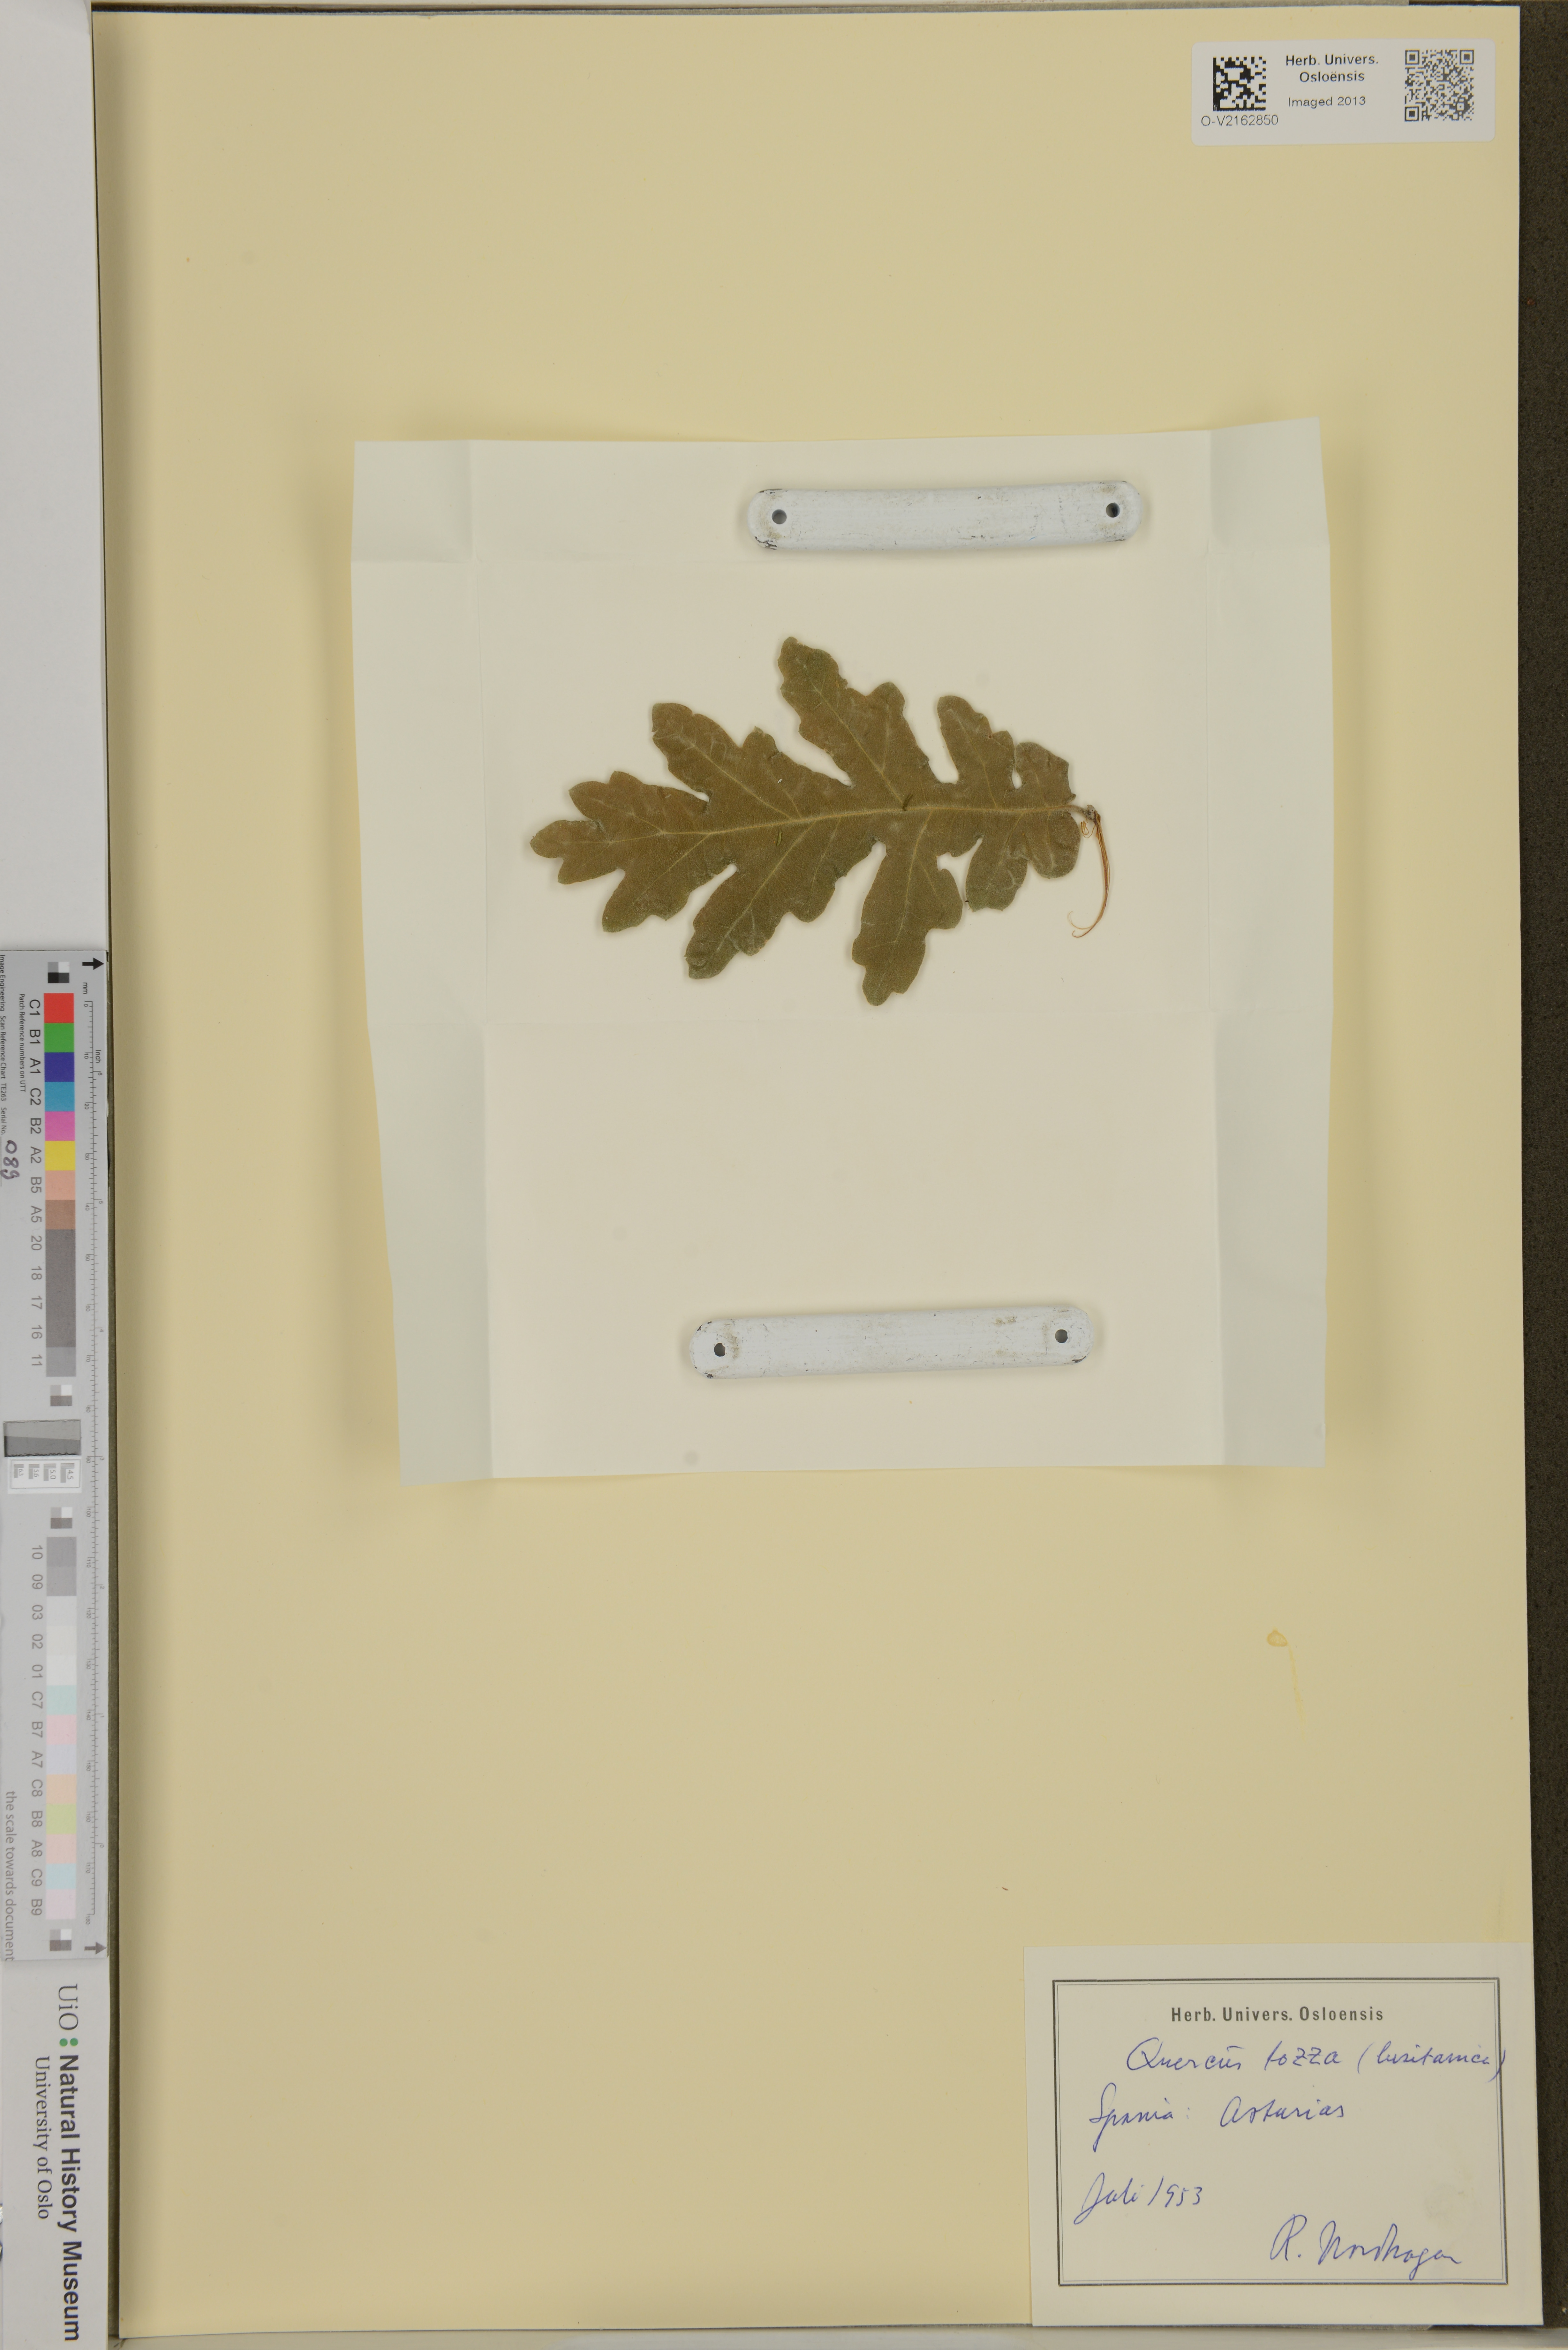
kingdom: Plantae
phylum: Tracheophyta
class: Magnoliopsida
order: Fagales
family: Fagaceae
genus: Quercus
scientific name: Quercus robur
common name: Pedunculate oak
